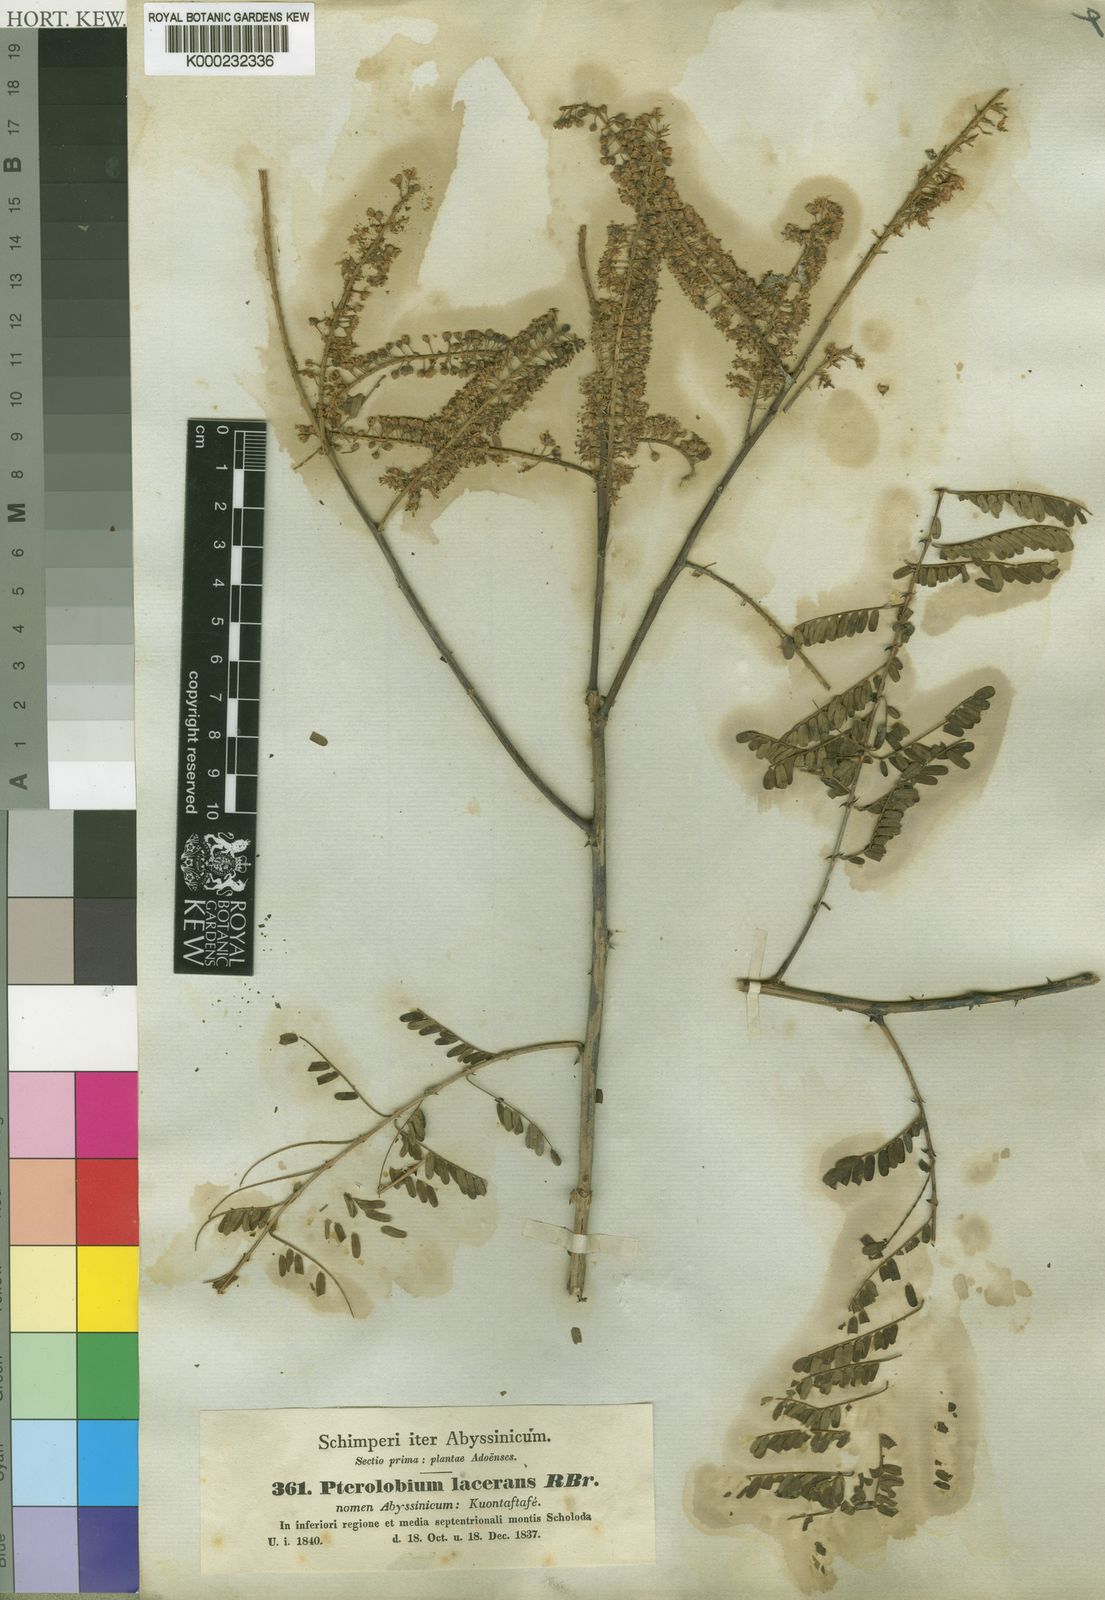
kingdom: Plantae
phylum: Tracheophyta
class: Magnoliopsida
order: Fabales
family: Fabaceae
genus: Pterolobium
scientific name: Pterolobium stellatum
